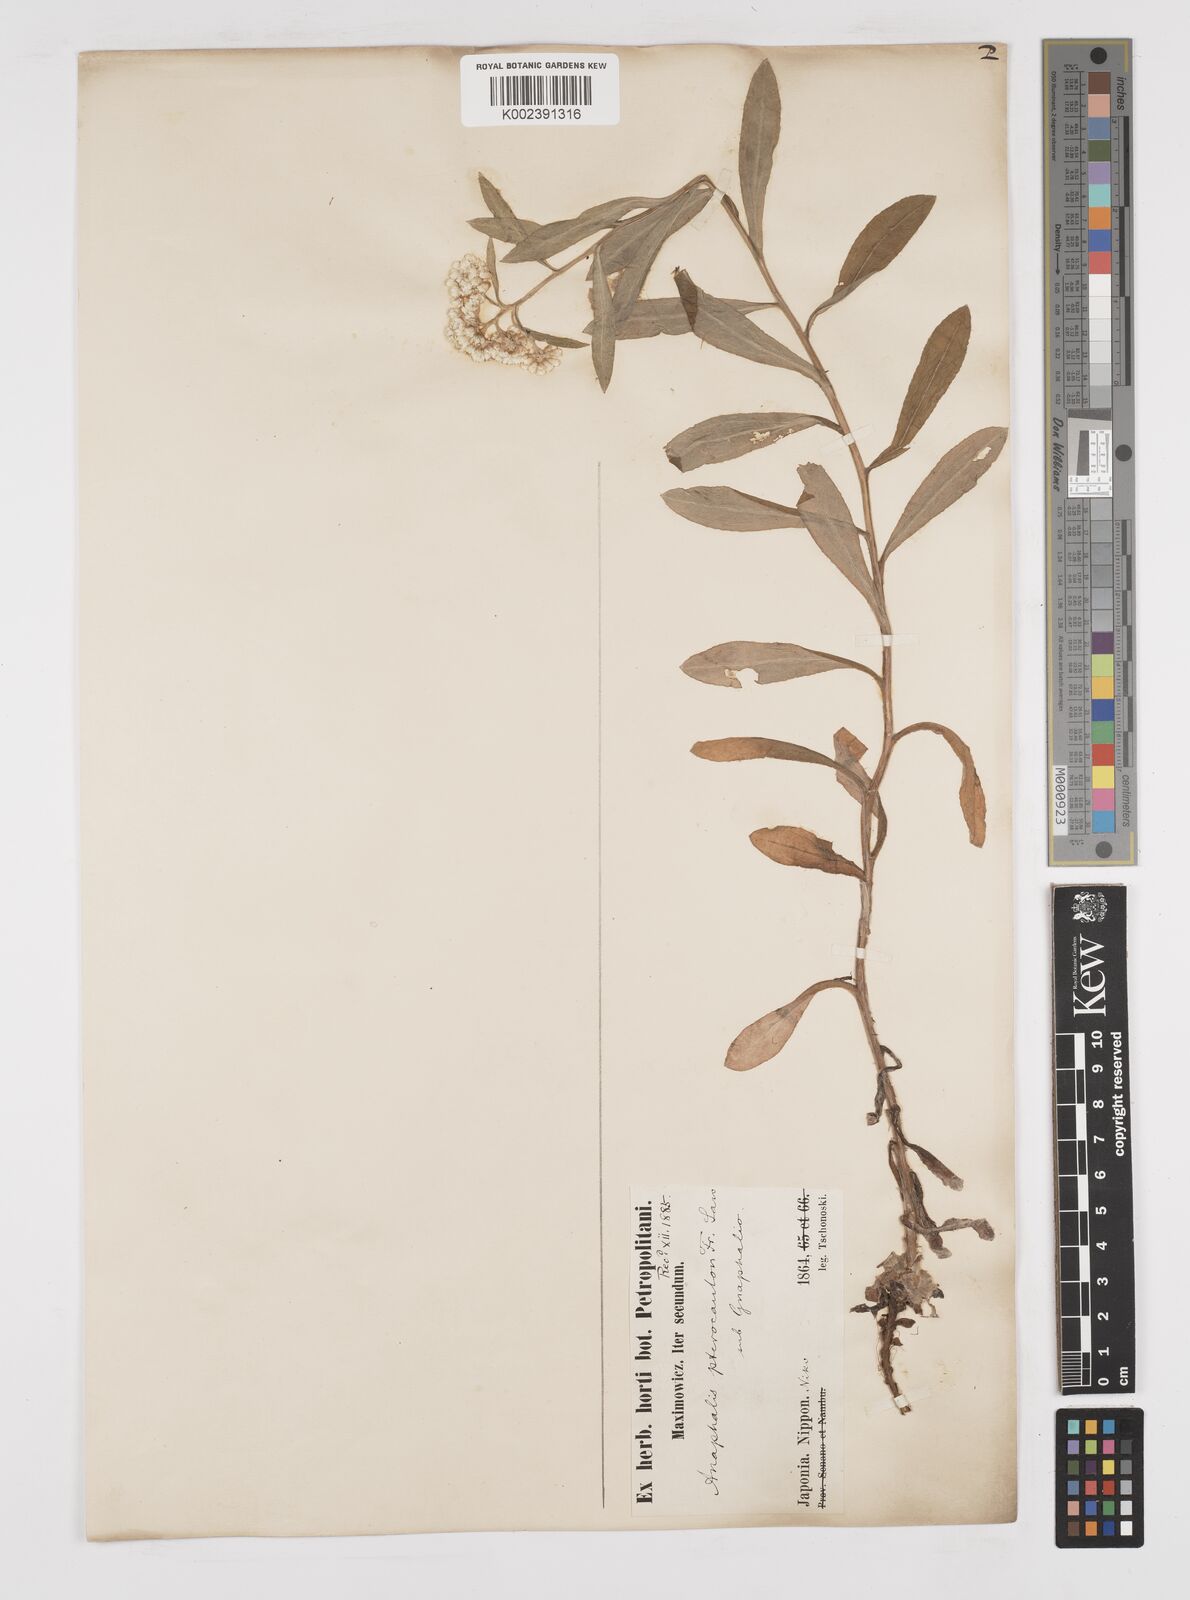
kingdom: Plantae
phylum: Tracheophyta
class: Magnoliopsida
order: Asterales
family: Asteraceae
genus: Anaphalis
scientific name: Anaphalis sinica
